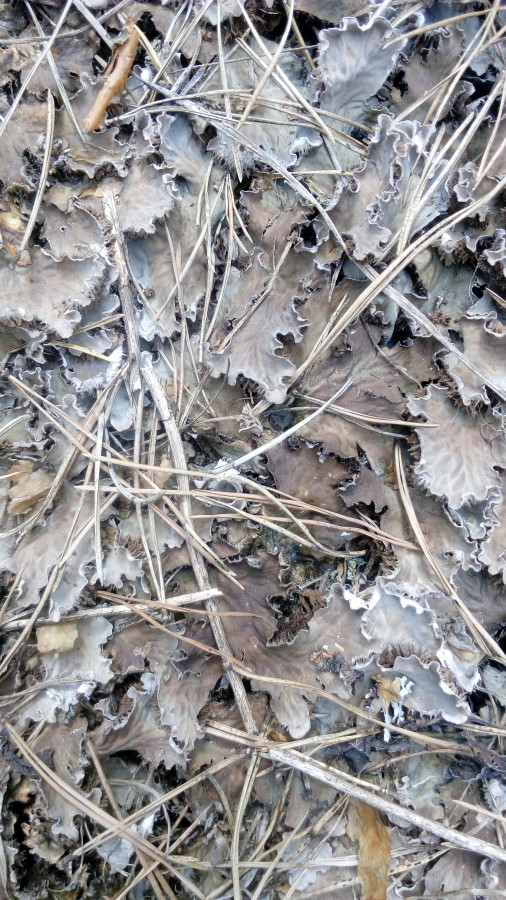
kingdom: Plantae
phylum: Marchantiophyta
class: Marchantiopsida
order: Marchantiales
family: Marchantiaceae
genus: Marchantia
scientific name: Marchantia
